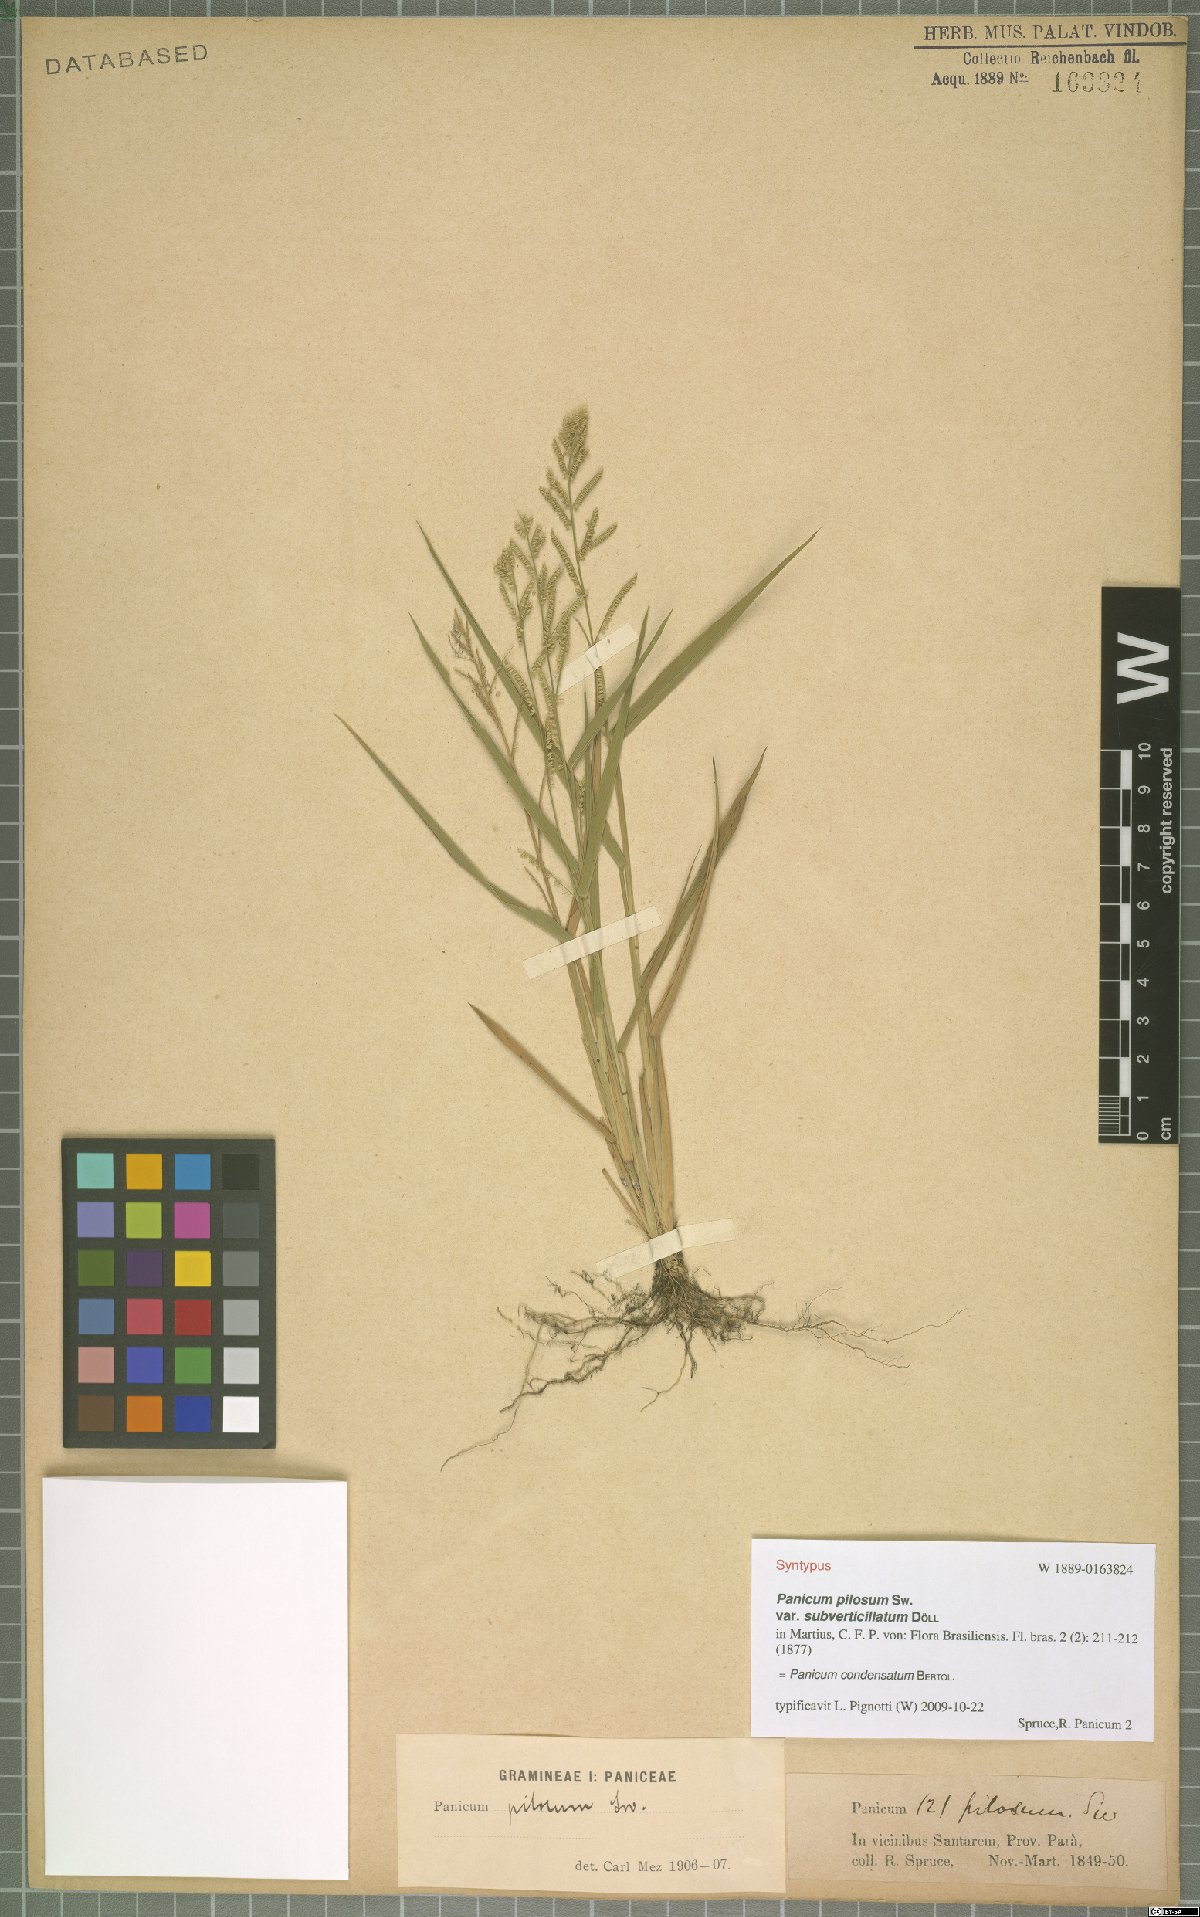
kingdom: Plantae
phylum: Tracheophyta
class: Liliopsida
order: Poales
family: Poaceae
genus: Hymenachne
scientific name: Hymenachne condensata
